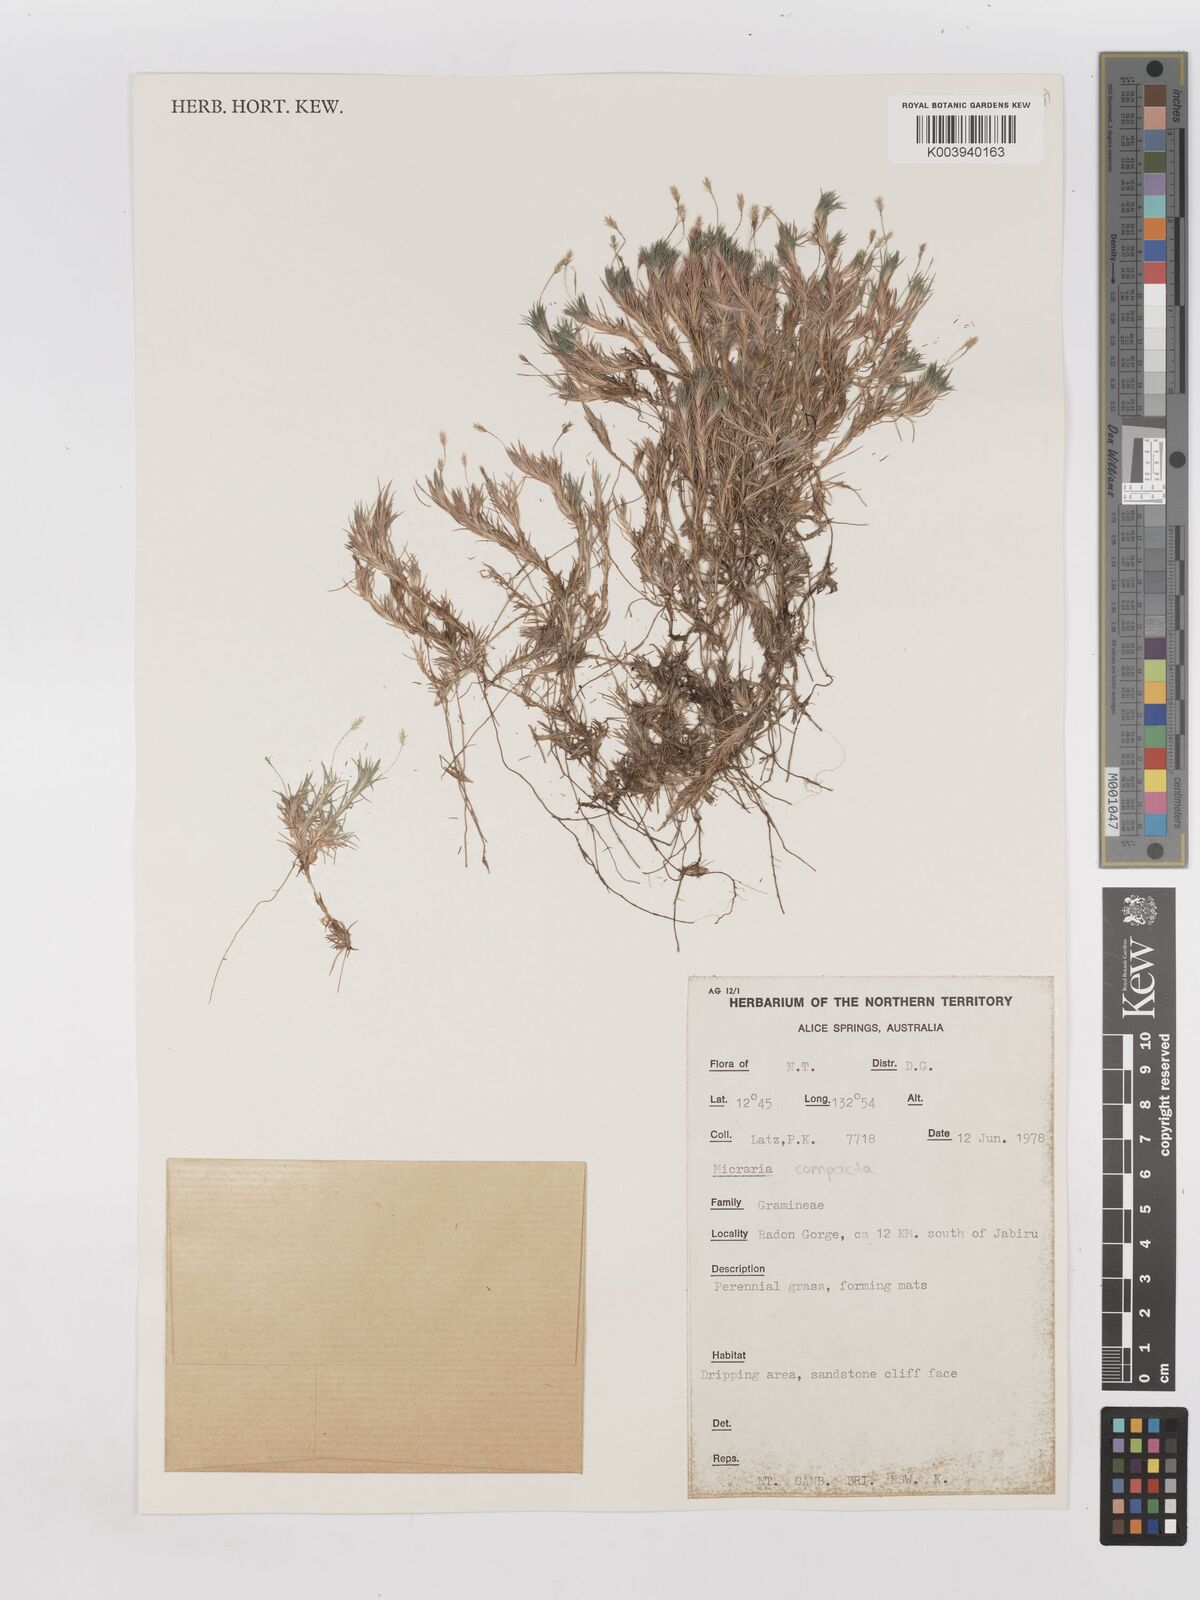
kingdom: Plantae
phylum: Tracheophyta
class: Liliopsida
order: Poales
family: Poaceae
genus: Micraira
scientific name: Micraira compacta
